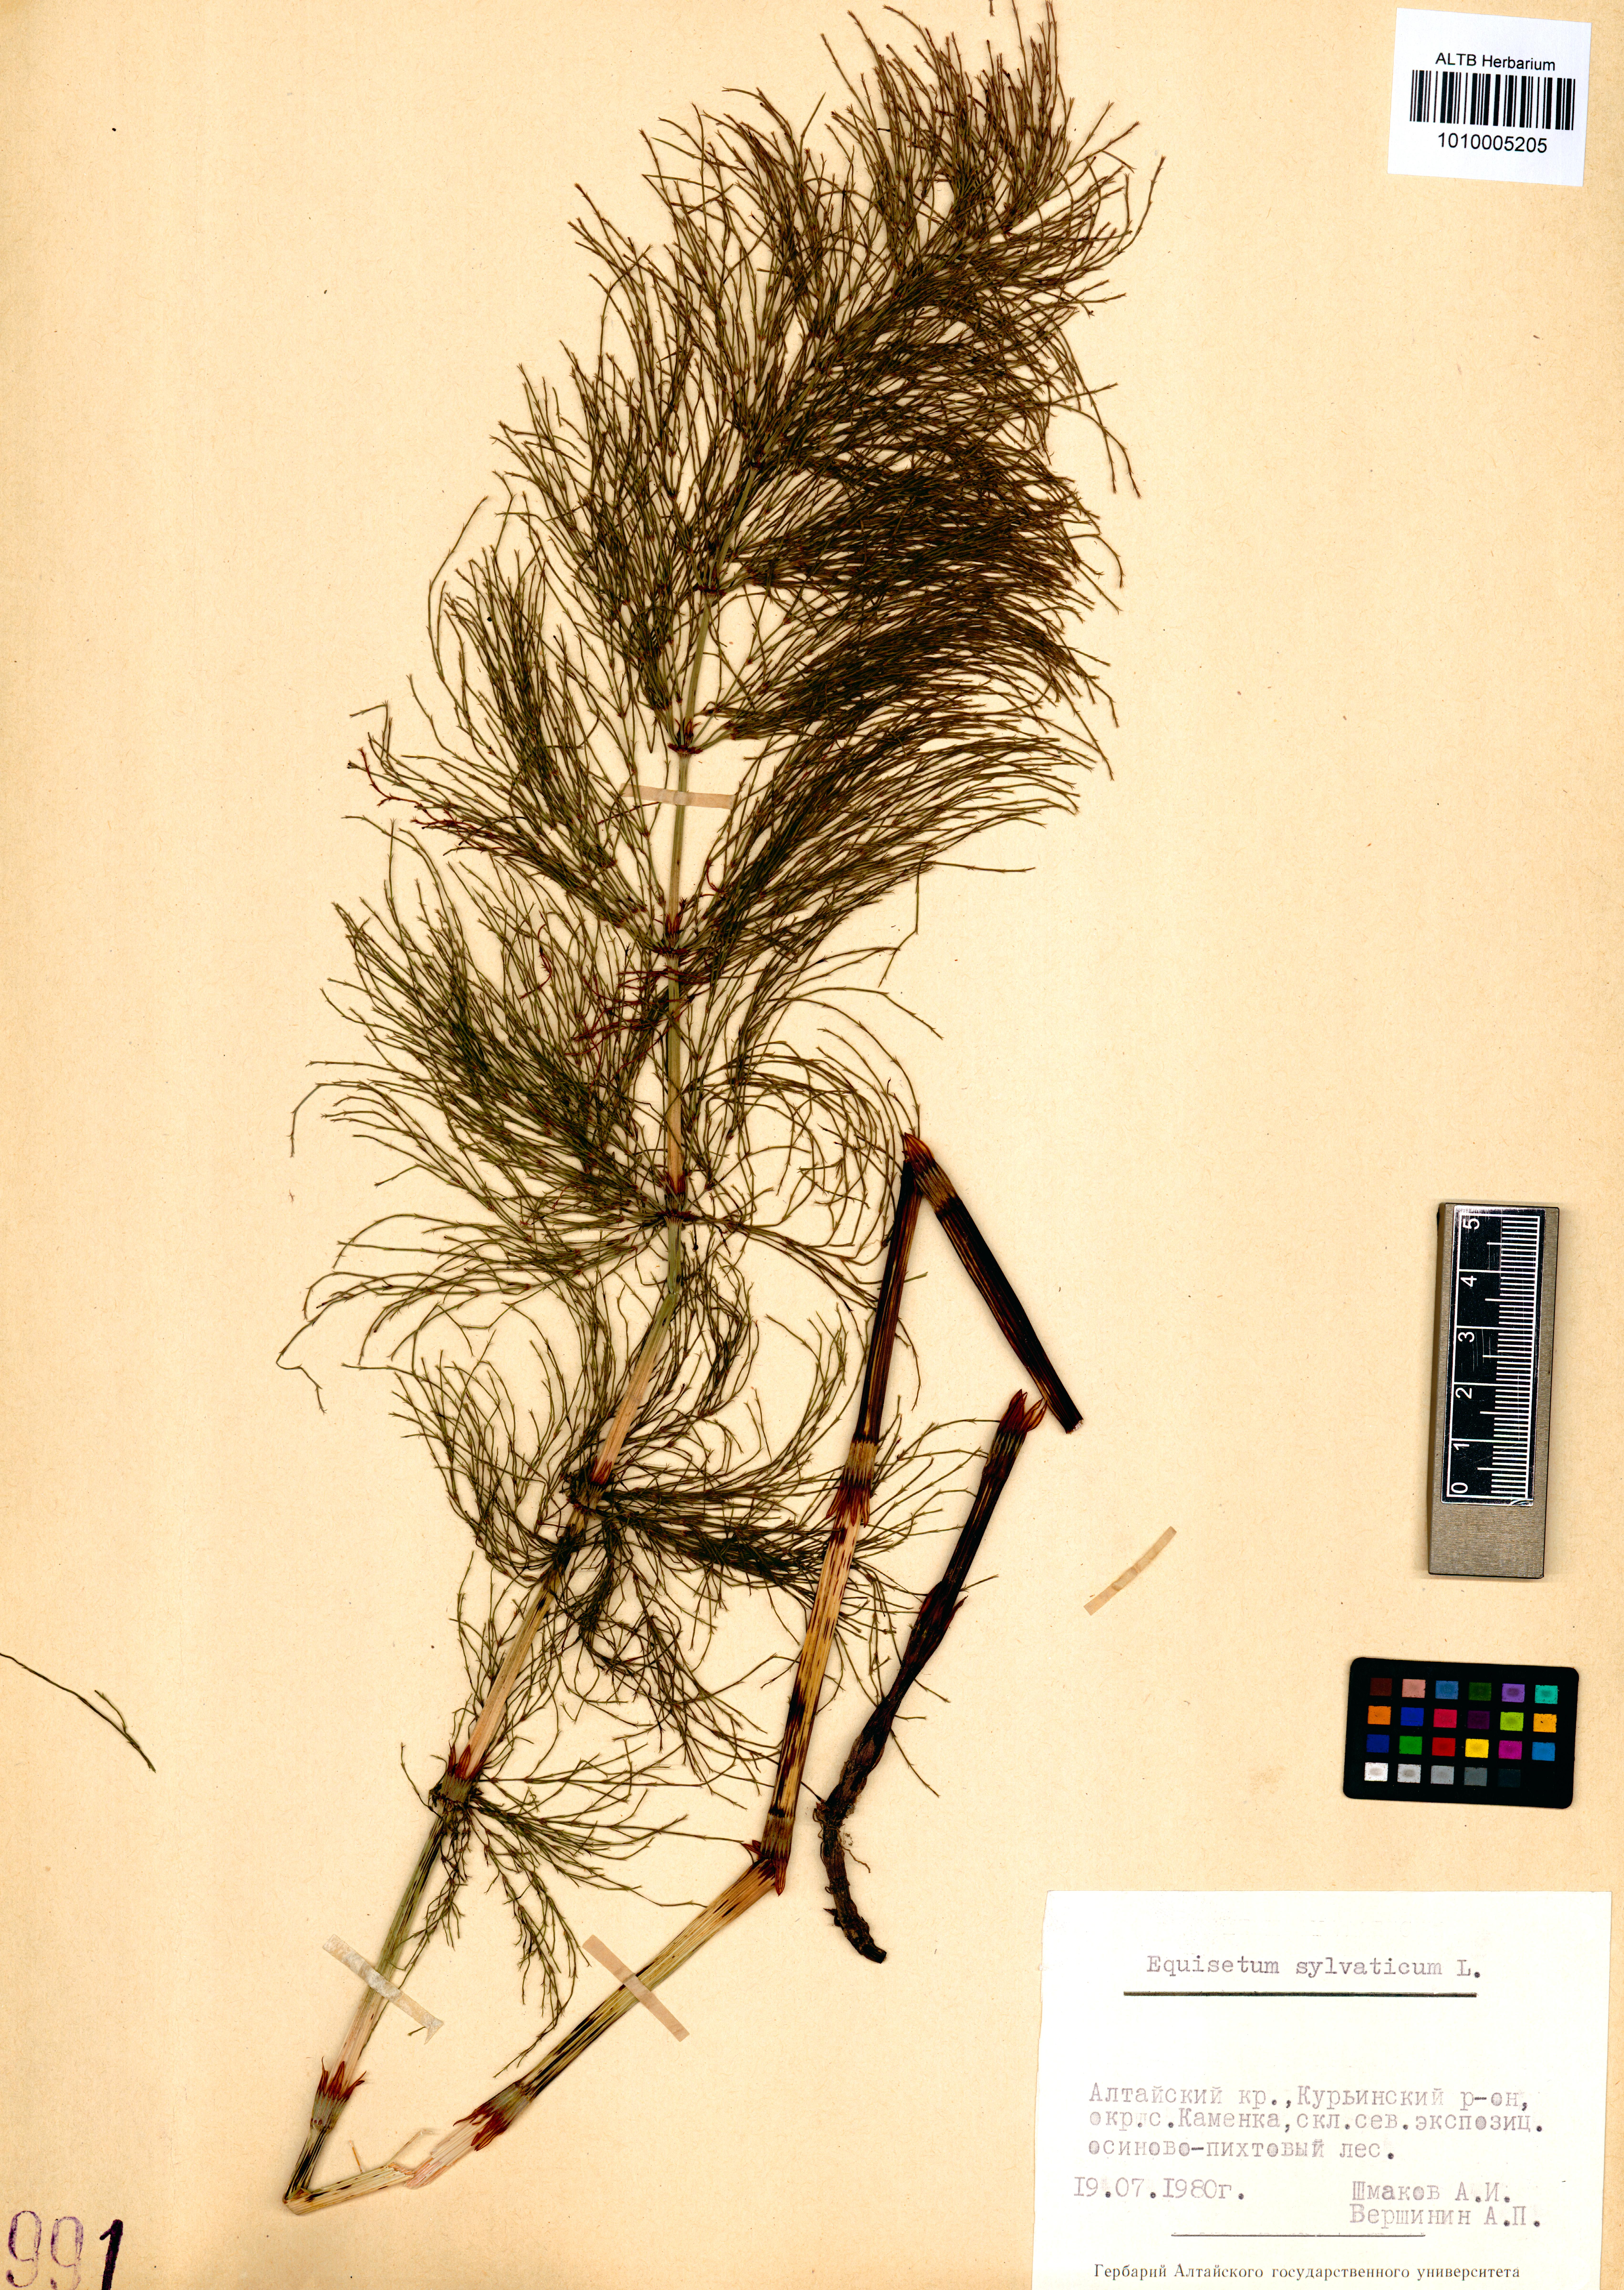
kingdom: Plantae
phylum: Tracheophyta
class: Polypodiopsida
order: Equisetales
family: Equisetaceae
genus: Equisetum
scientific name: Equisetum sylvaticum
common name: Wood horsetail
